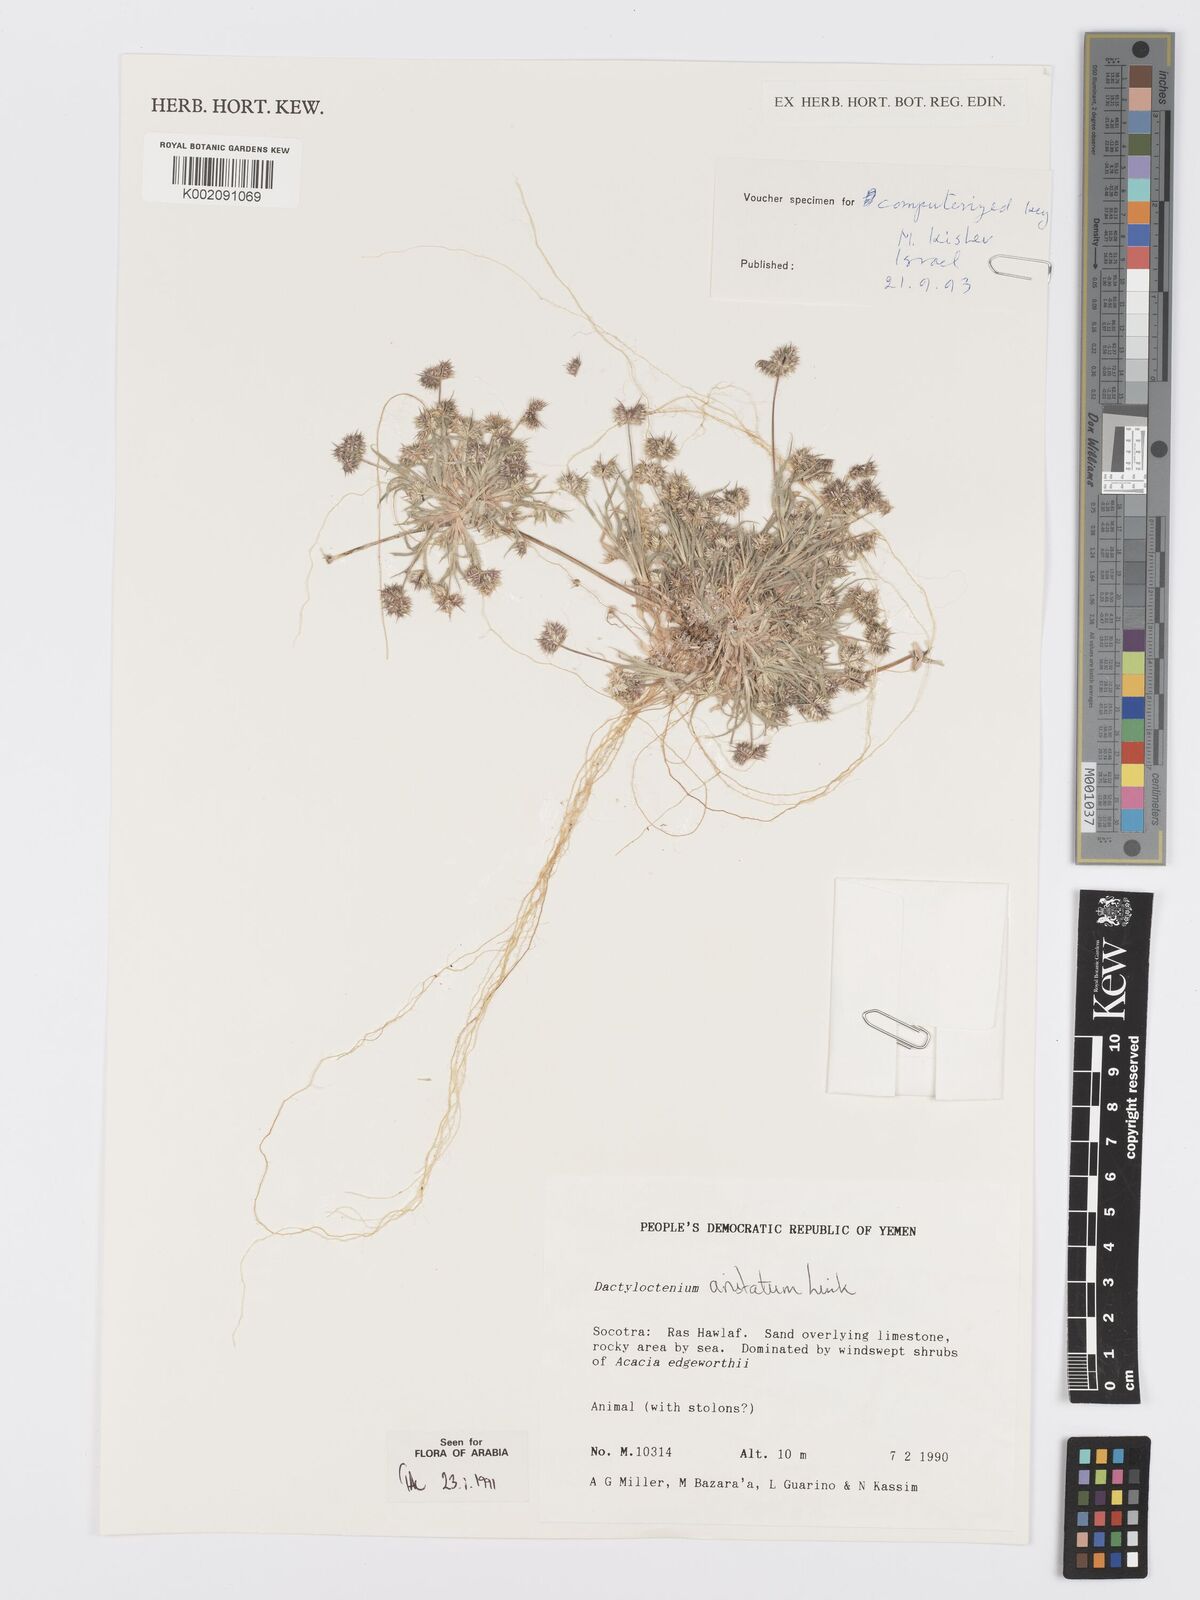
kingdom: Plantae
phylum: Tracheophyta
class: Liliopsida
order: Poales
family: Poaceae
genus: Dactyloctenium
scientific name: Dactyloctenium aristatum
